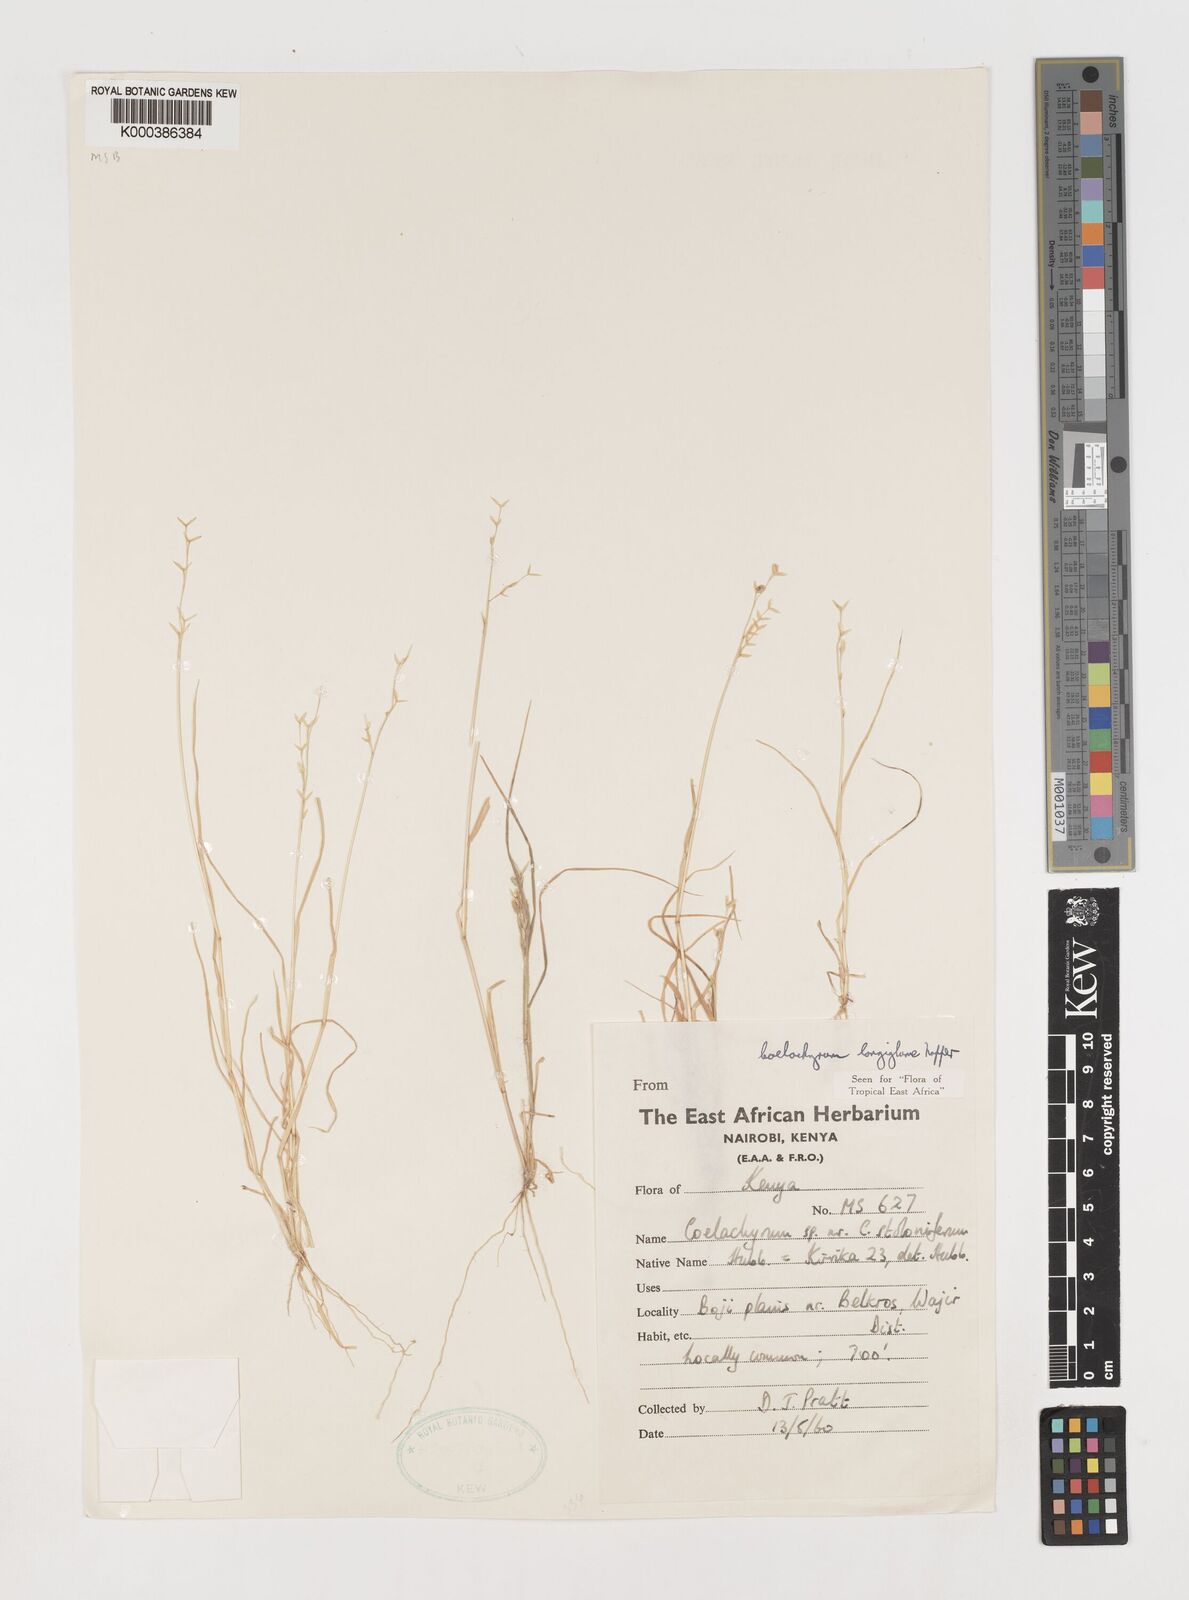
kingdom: Plantae
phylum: Tracheophyta
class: Liliopsida
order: Poales
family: Poaceae
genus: Coelachyrum
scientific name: Coelachyrum longiglume
